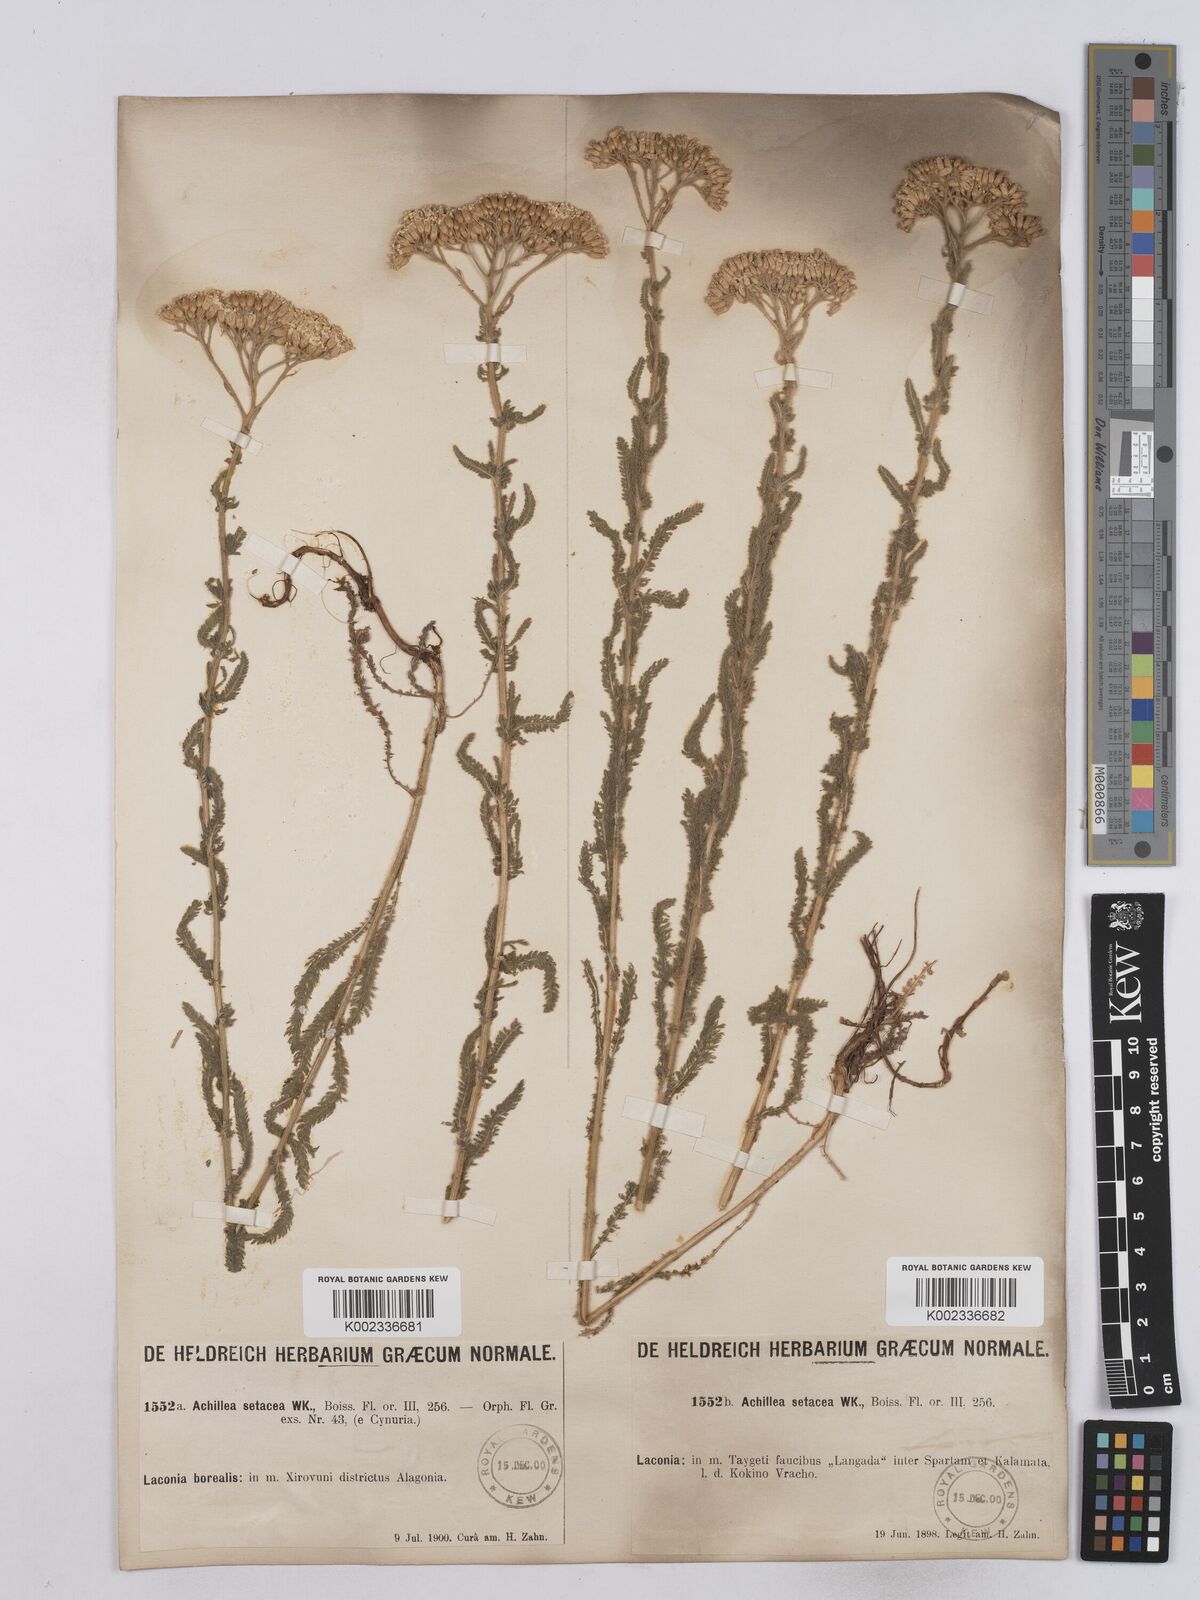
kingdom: Plantae
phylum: Tracheophyta
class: Magnoliopsida
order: Asterales
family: Asteraceae
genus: Achillea
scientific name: Achillea setacea
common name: Bristly yarrow
